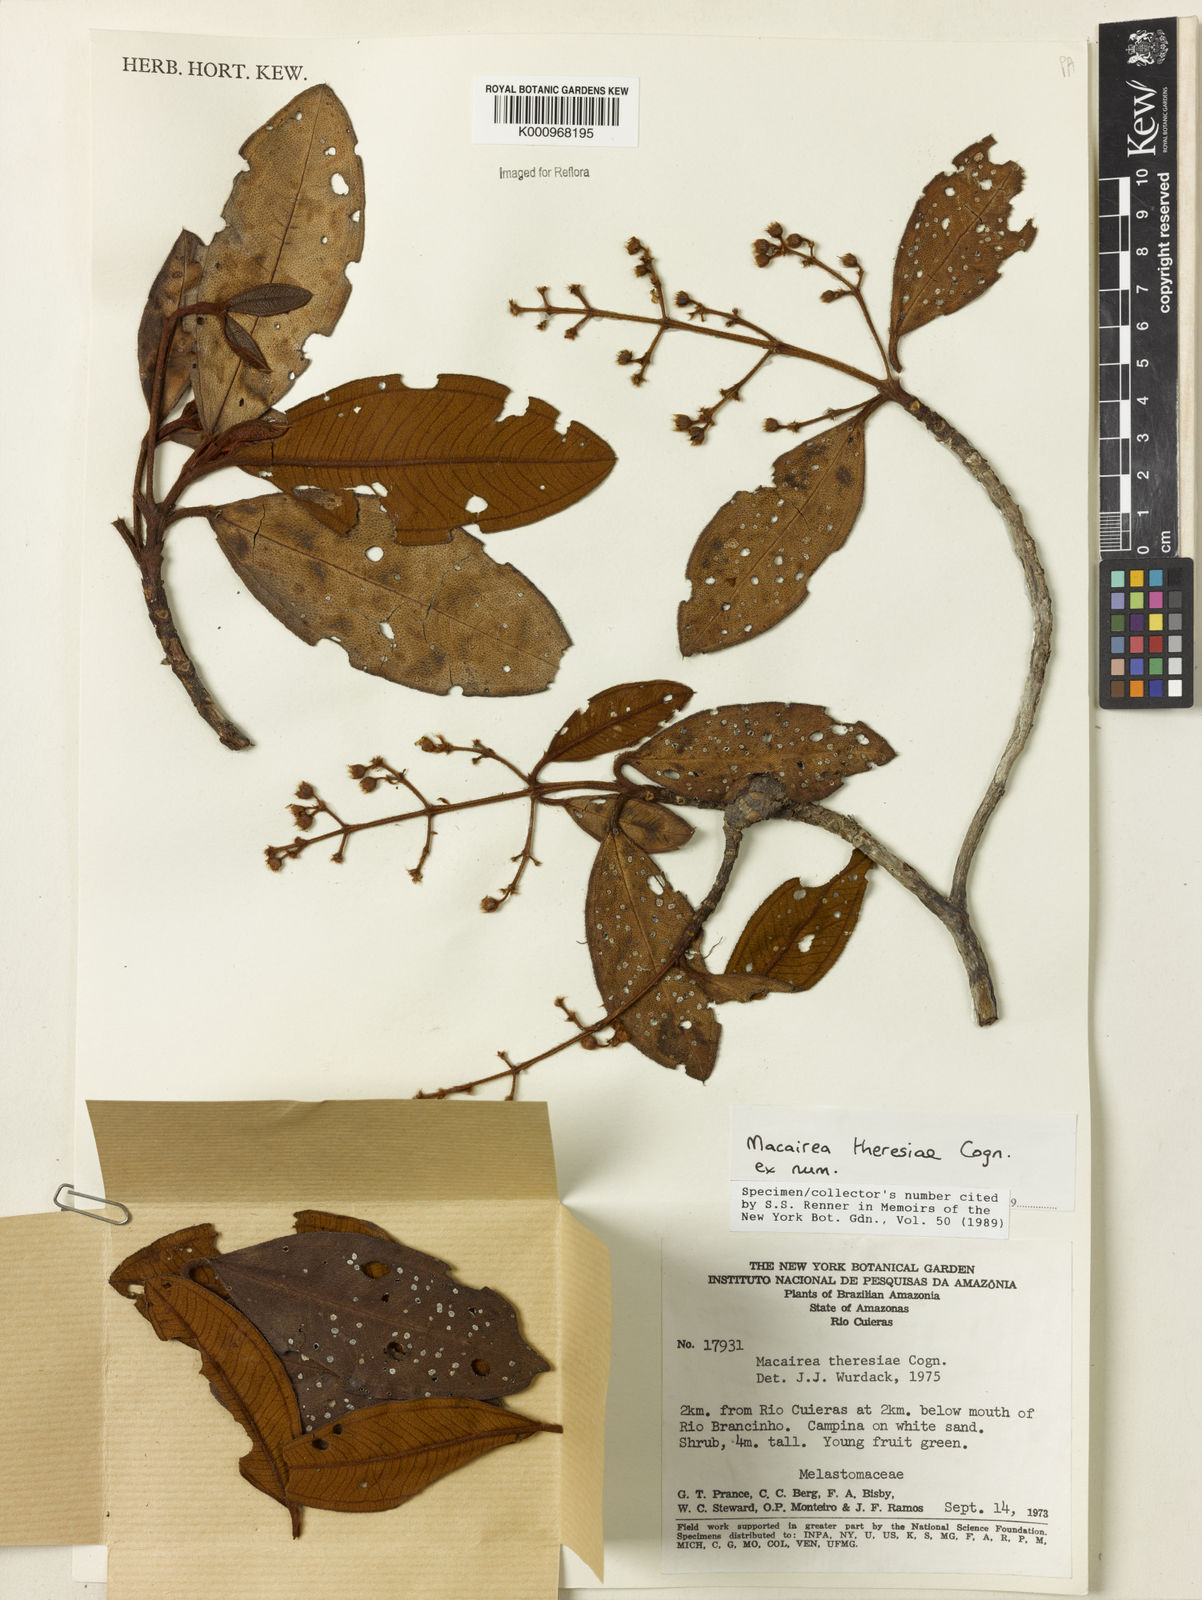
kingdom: Plantae
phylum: Tracheophyta
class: Magnoliopsida
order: Myrtales
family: Melastomataceae
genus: Macairea
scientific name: Macairea theresiae
